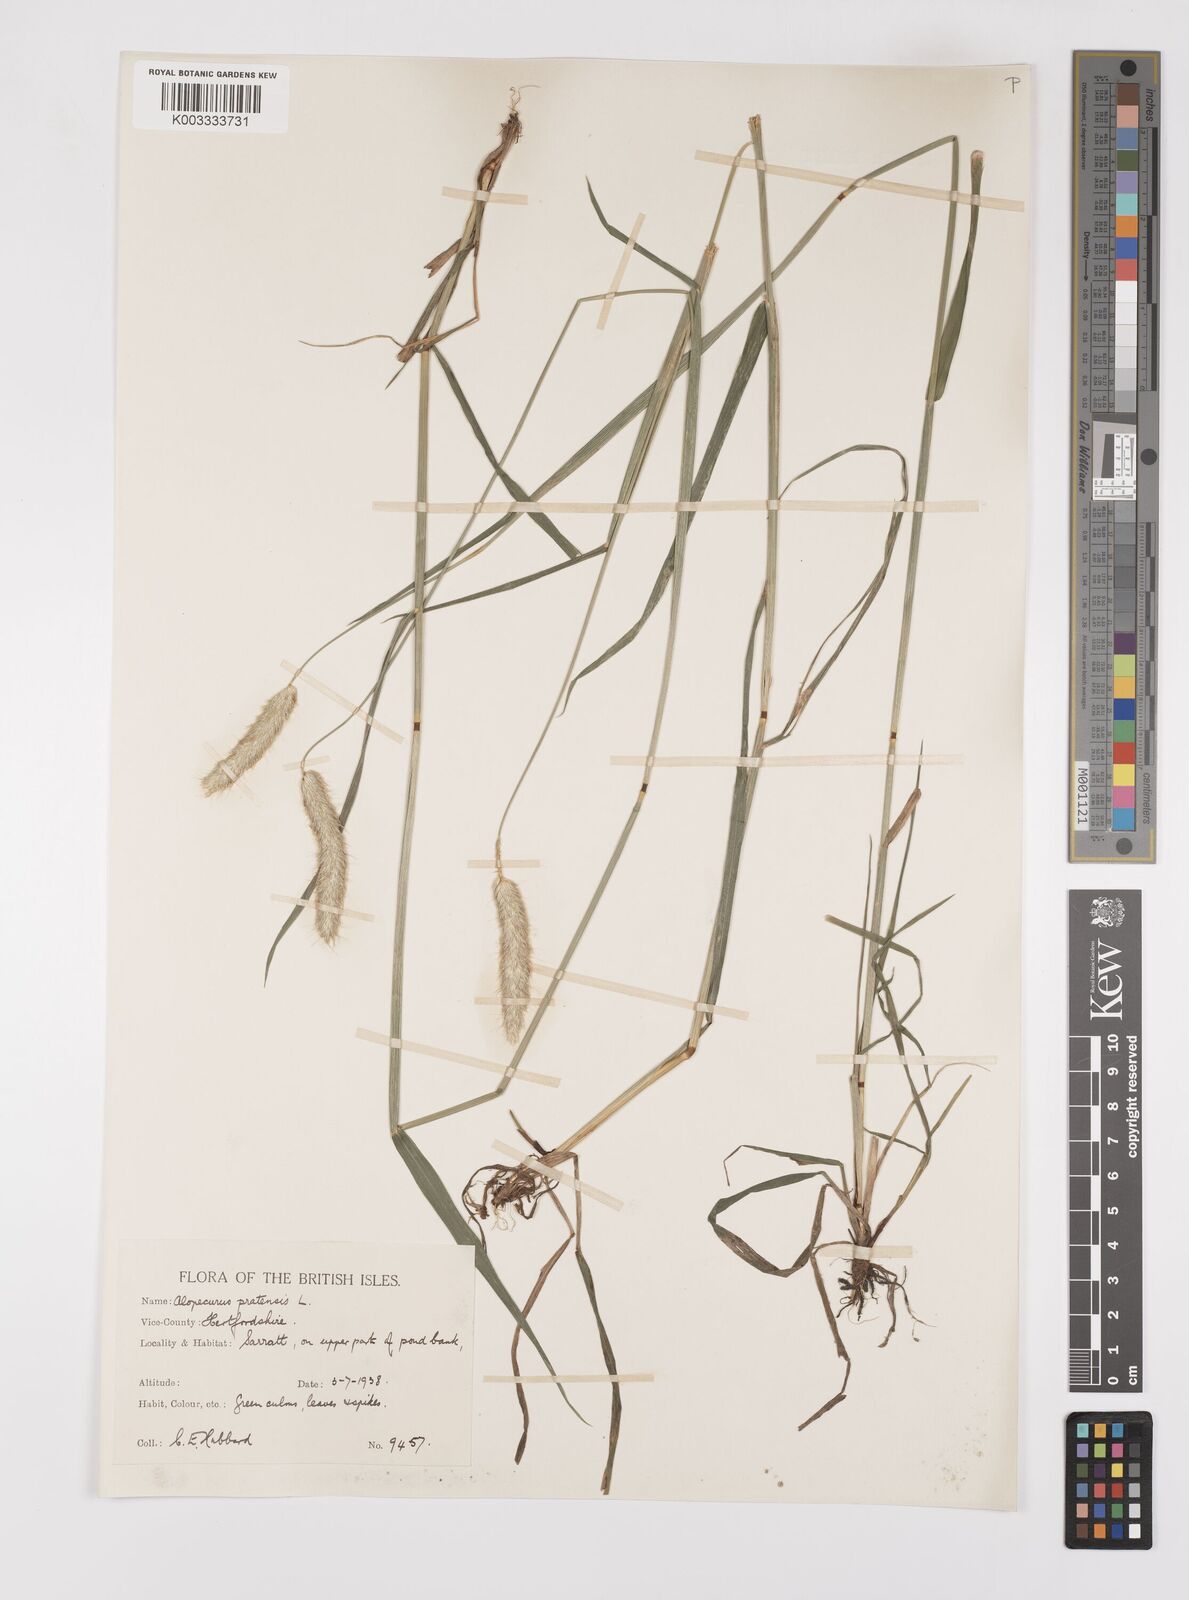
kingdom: Plantae
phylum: Tracheophyta
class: Liliopsida
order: Poales
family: Poaceae
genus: Alopecurus
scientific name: Alopecurus pratensis
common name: Meadow foxtail
